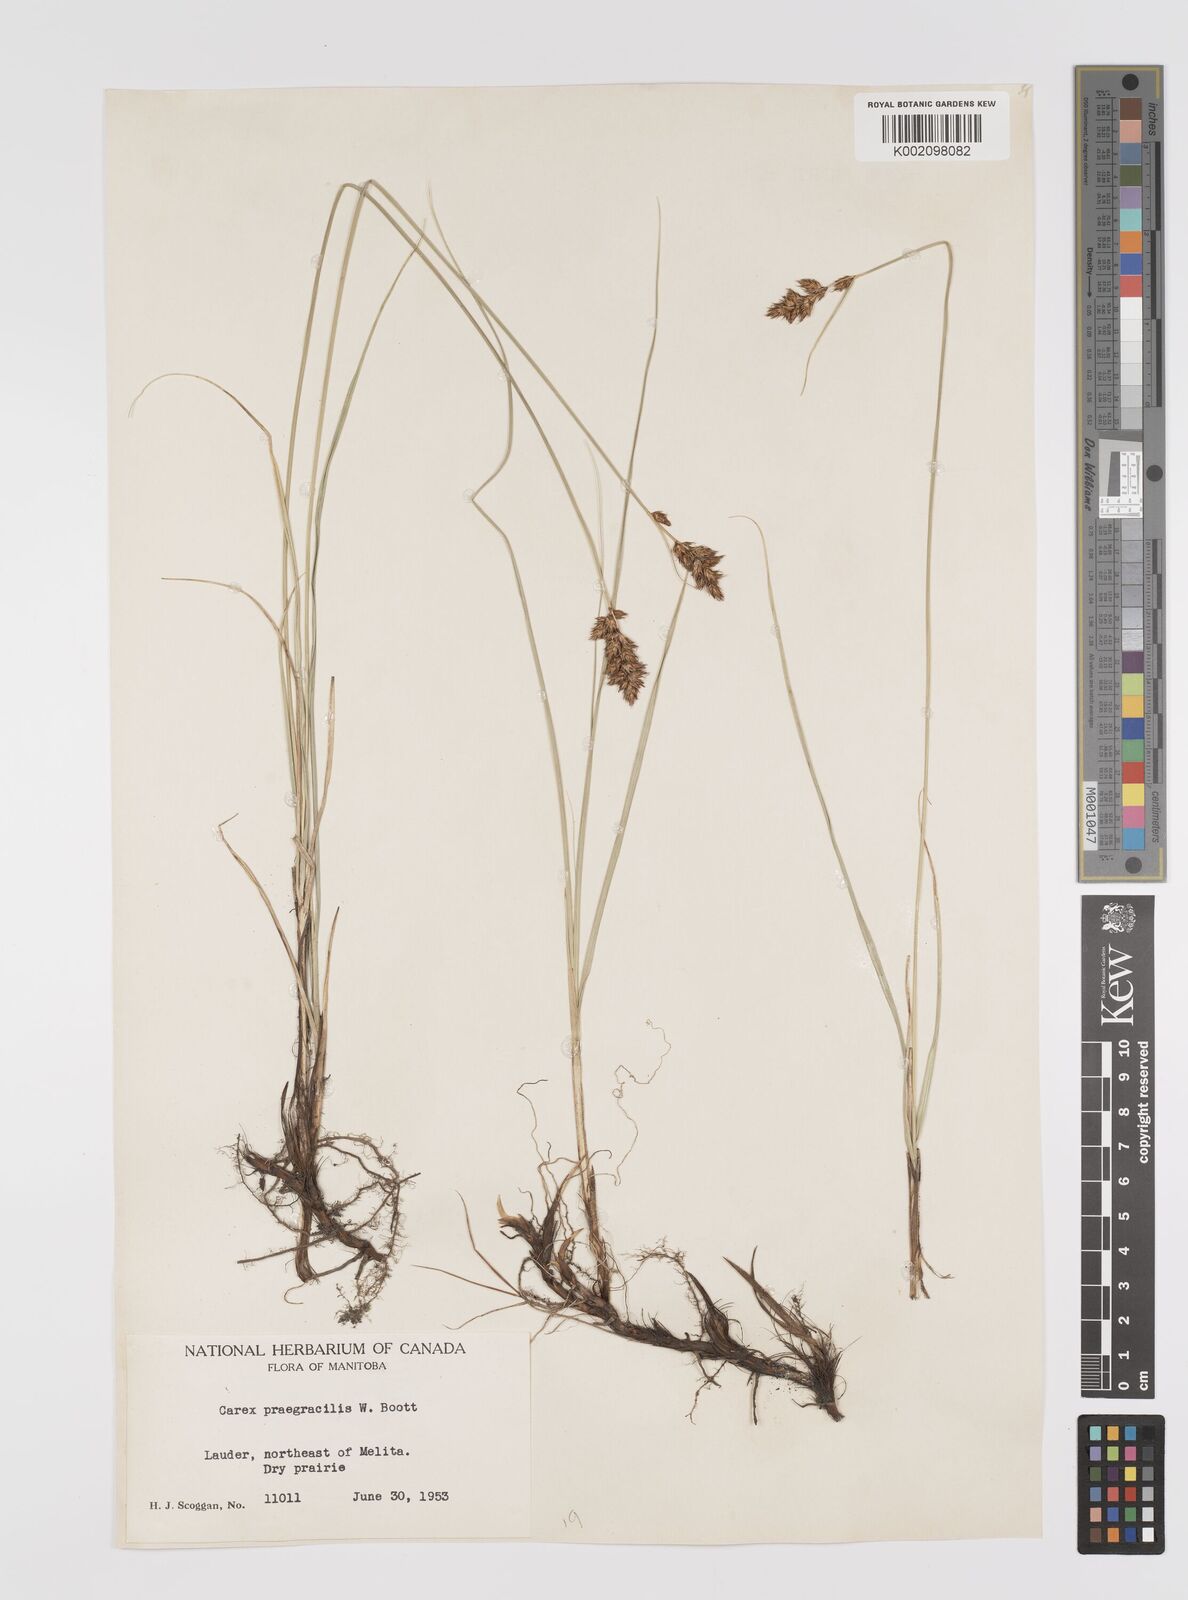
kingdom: Plantae
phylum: Tracheophyta
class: Liliopsida
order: Poales
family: Cyperaceae
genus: Carex
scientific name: Carex praegracilis
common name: Black creeper sedge
